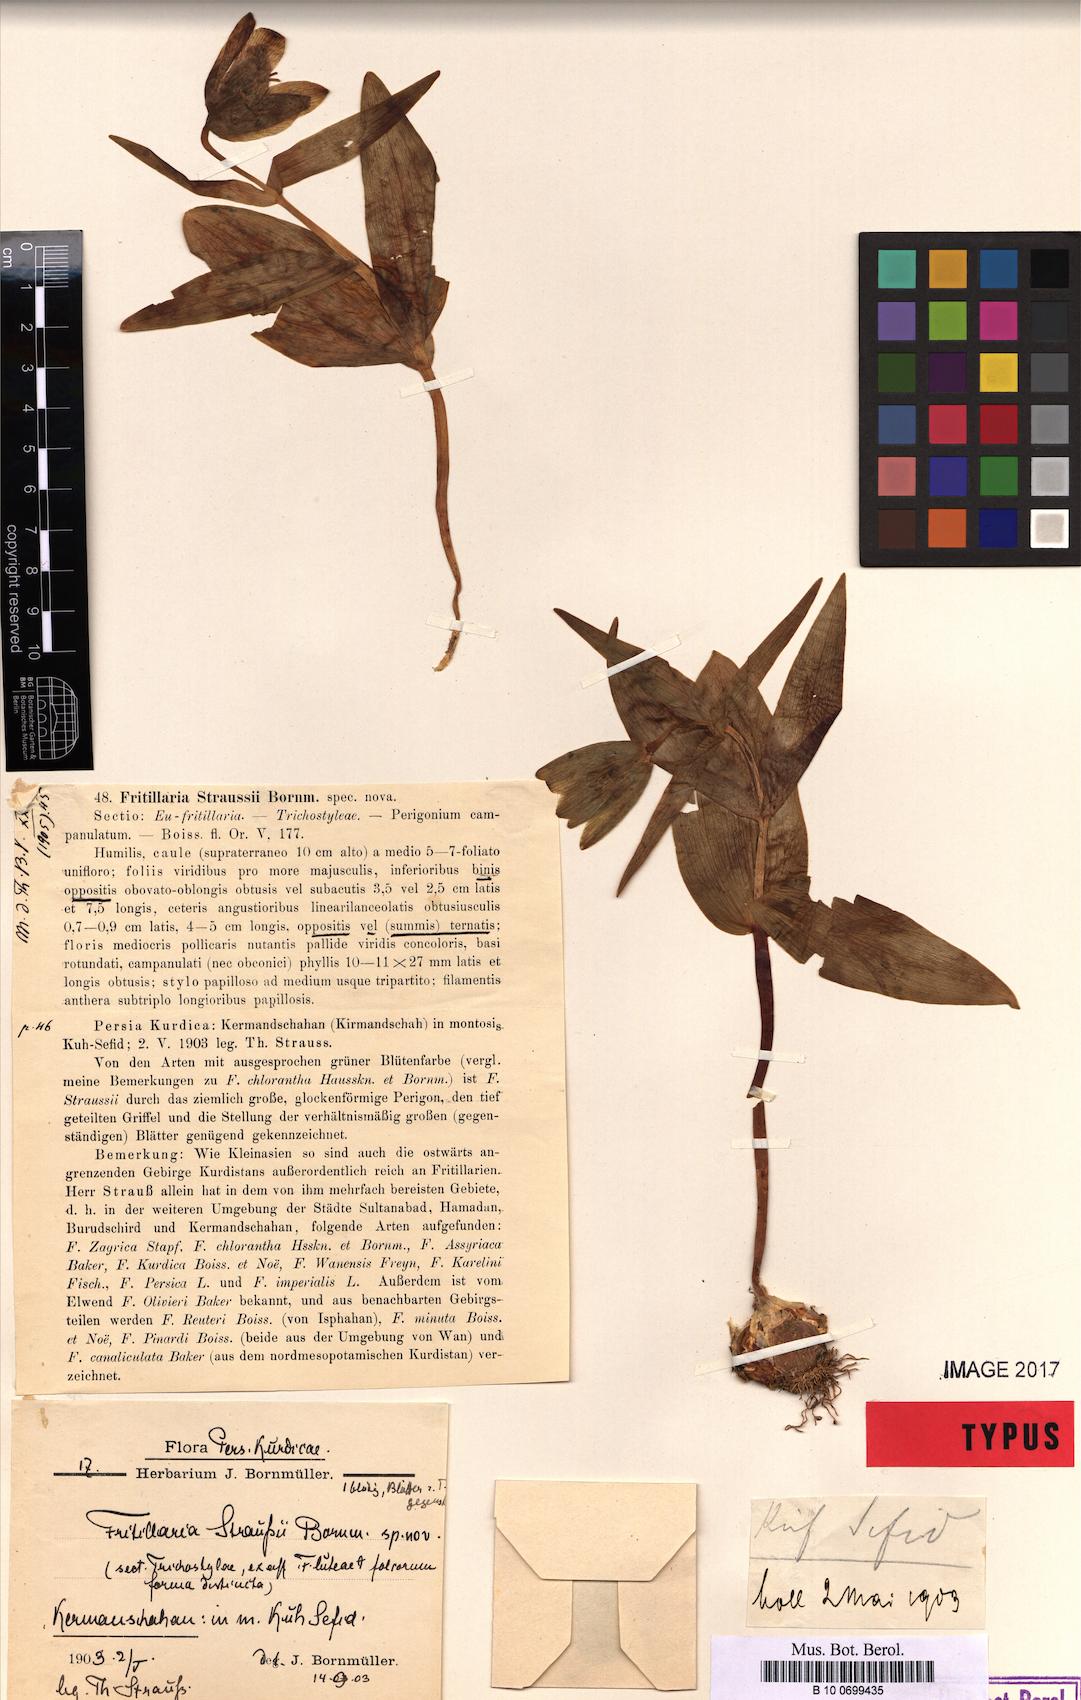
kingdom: Plantae
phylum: Tracheophyta
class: Liliopsida
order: Liliales
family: Liliaceae
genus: Fritillaria
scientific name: Fritillaria caucasica
